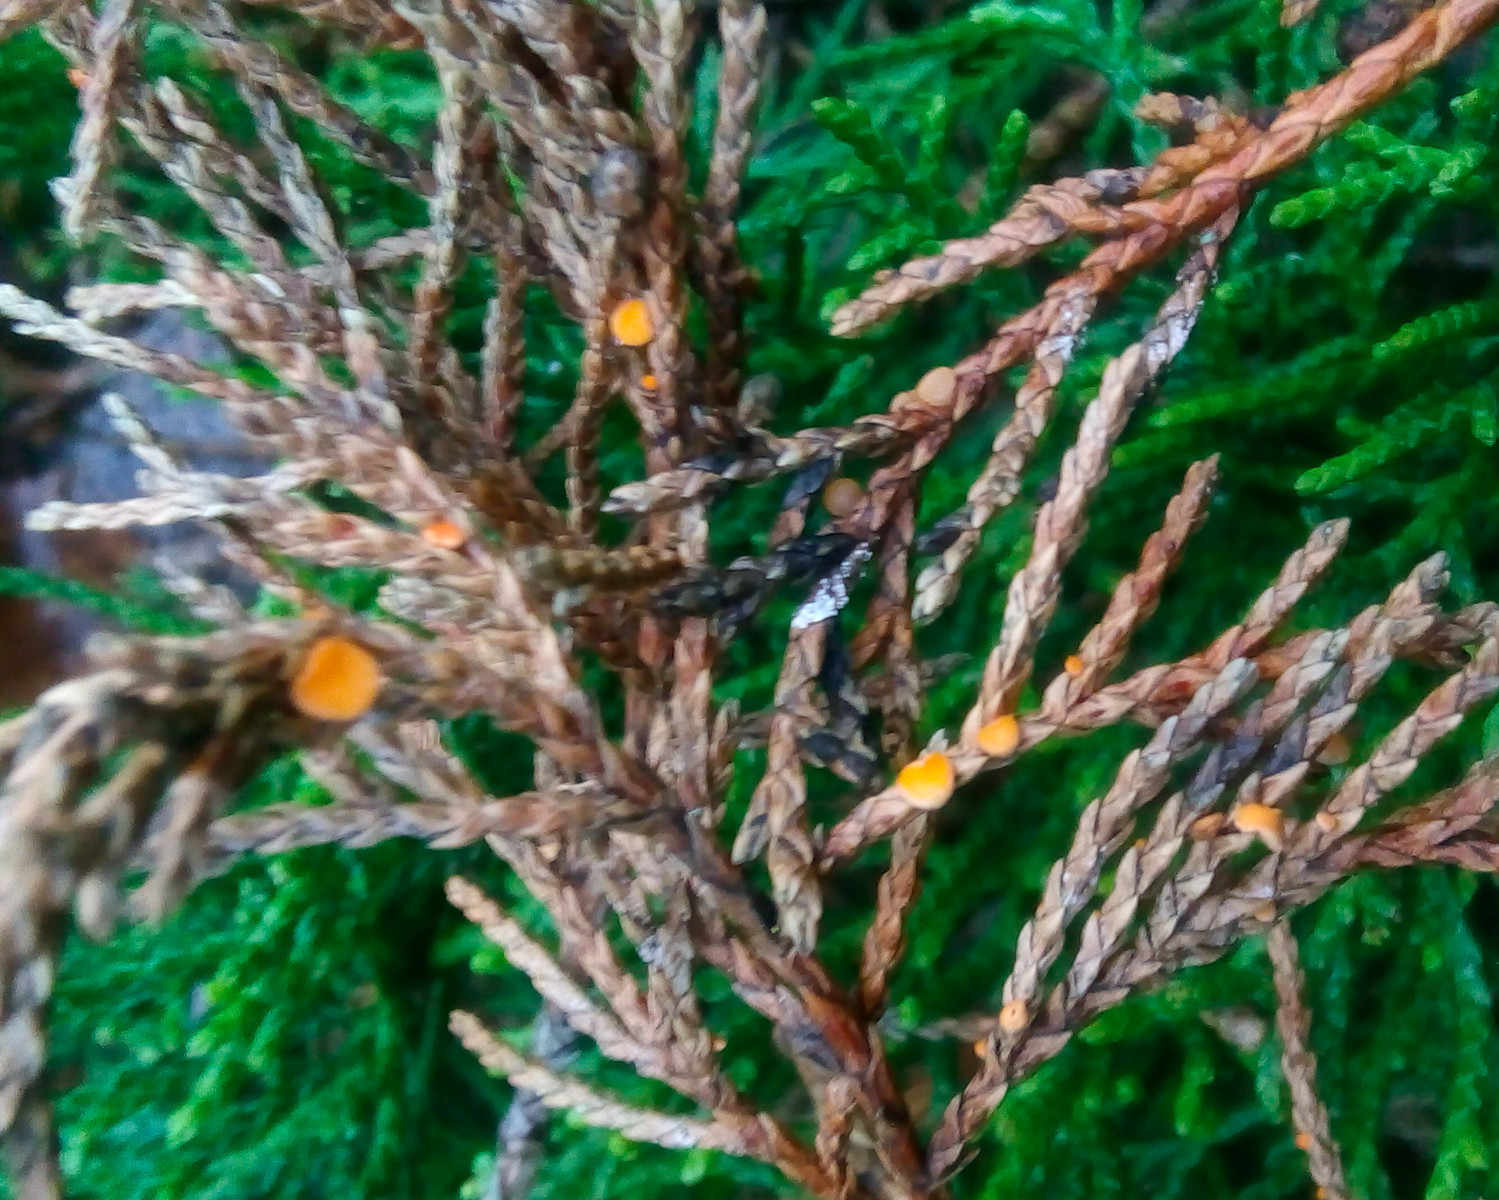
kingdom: Fungi
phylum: Ascomycota
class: Pezizomycetes
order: Pezizales
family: Sarcoscyphaceae
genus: Pithya
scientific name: Pithya cupressina
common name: lille dukatbæger
